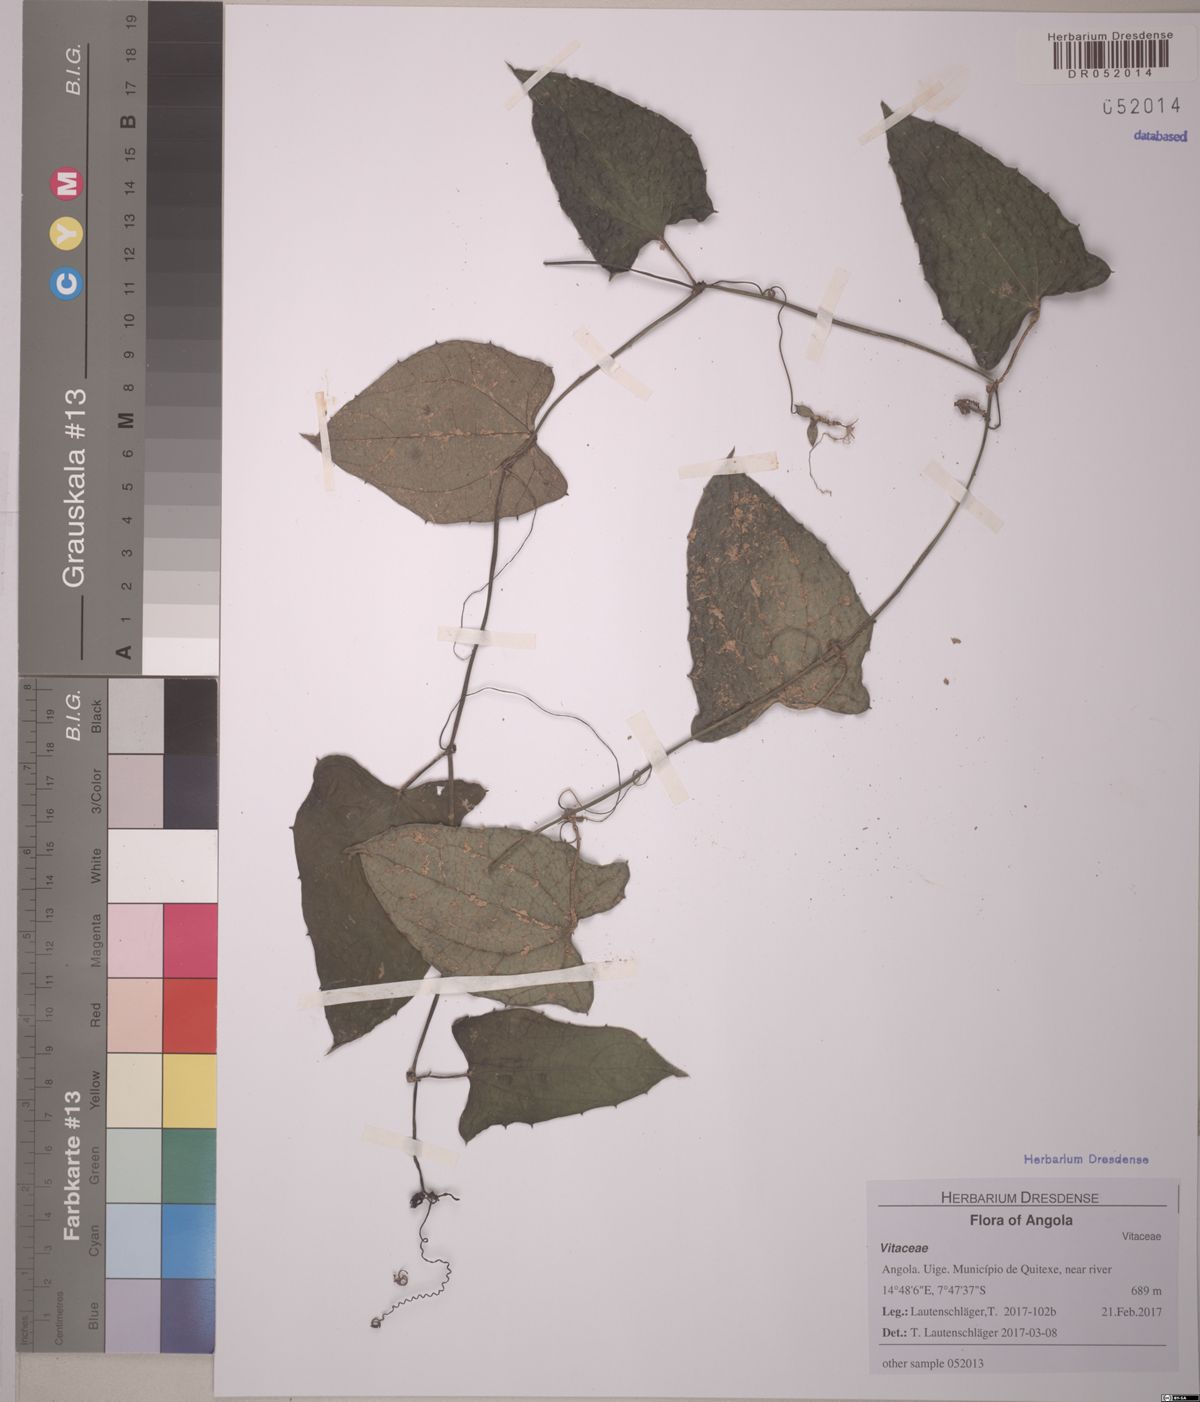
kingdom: Plantae
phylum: Tracheophyta
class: Magnoliopsida
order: Vitales
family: Vitaceae
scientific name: Vitaceae
